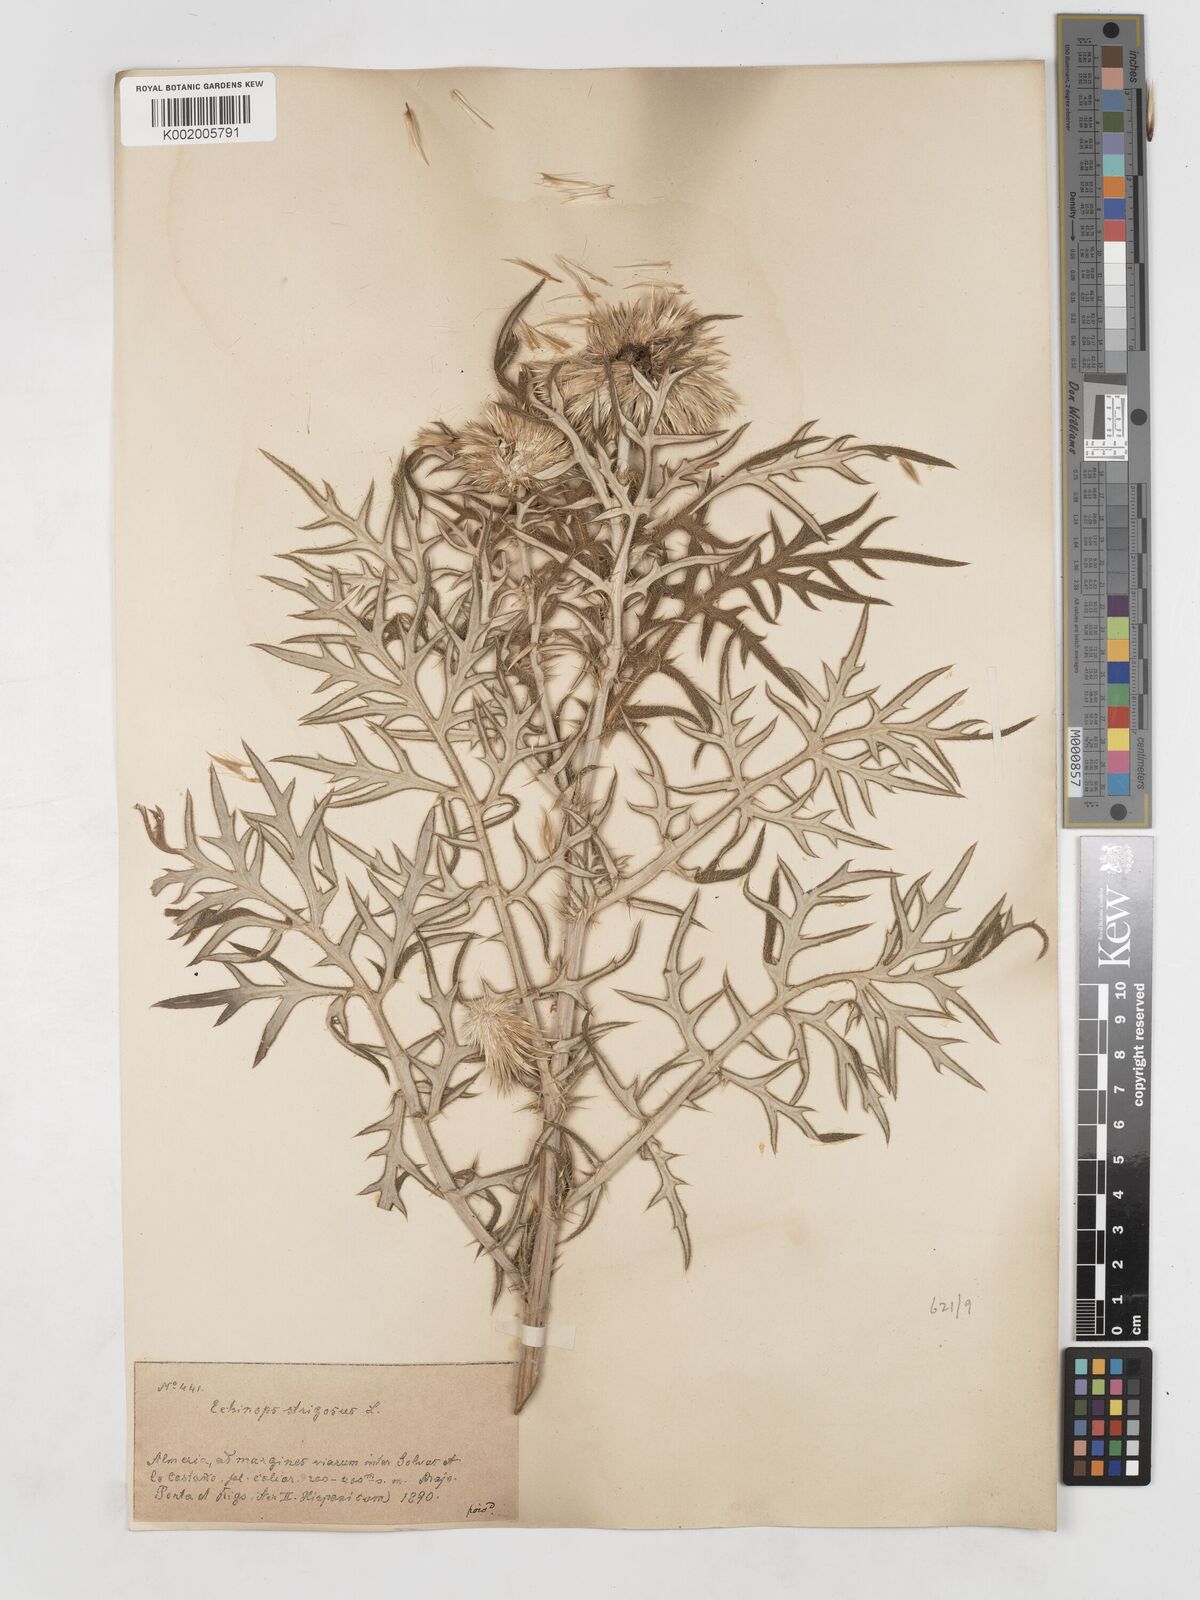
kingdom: Plantae
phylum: Tracheophyta
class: Magnoliopsida
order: Asterales
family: Asteraceae
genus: Echinops
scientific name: Echinops strigosus
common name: Rough-leaf globe thistle
